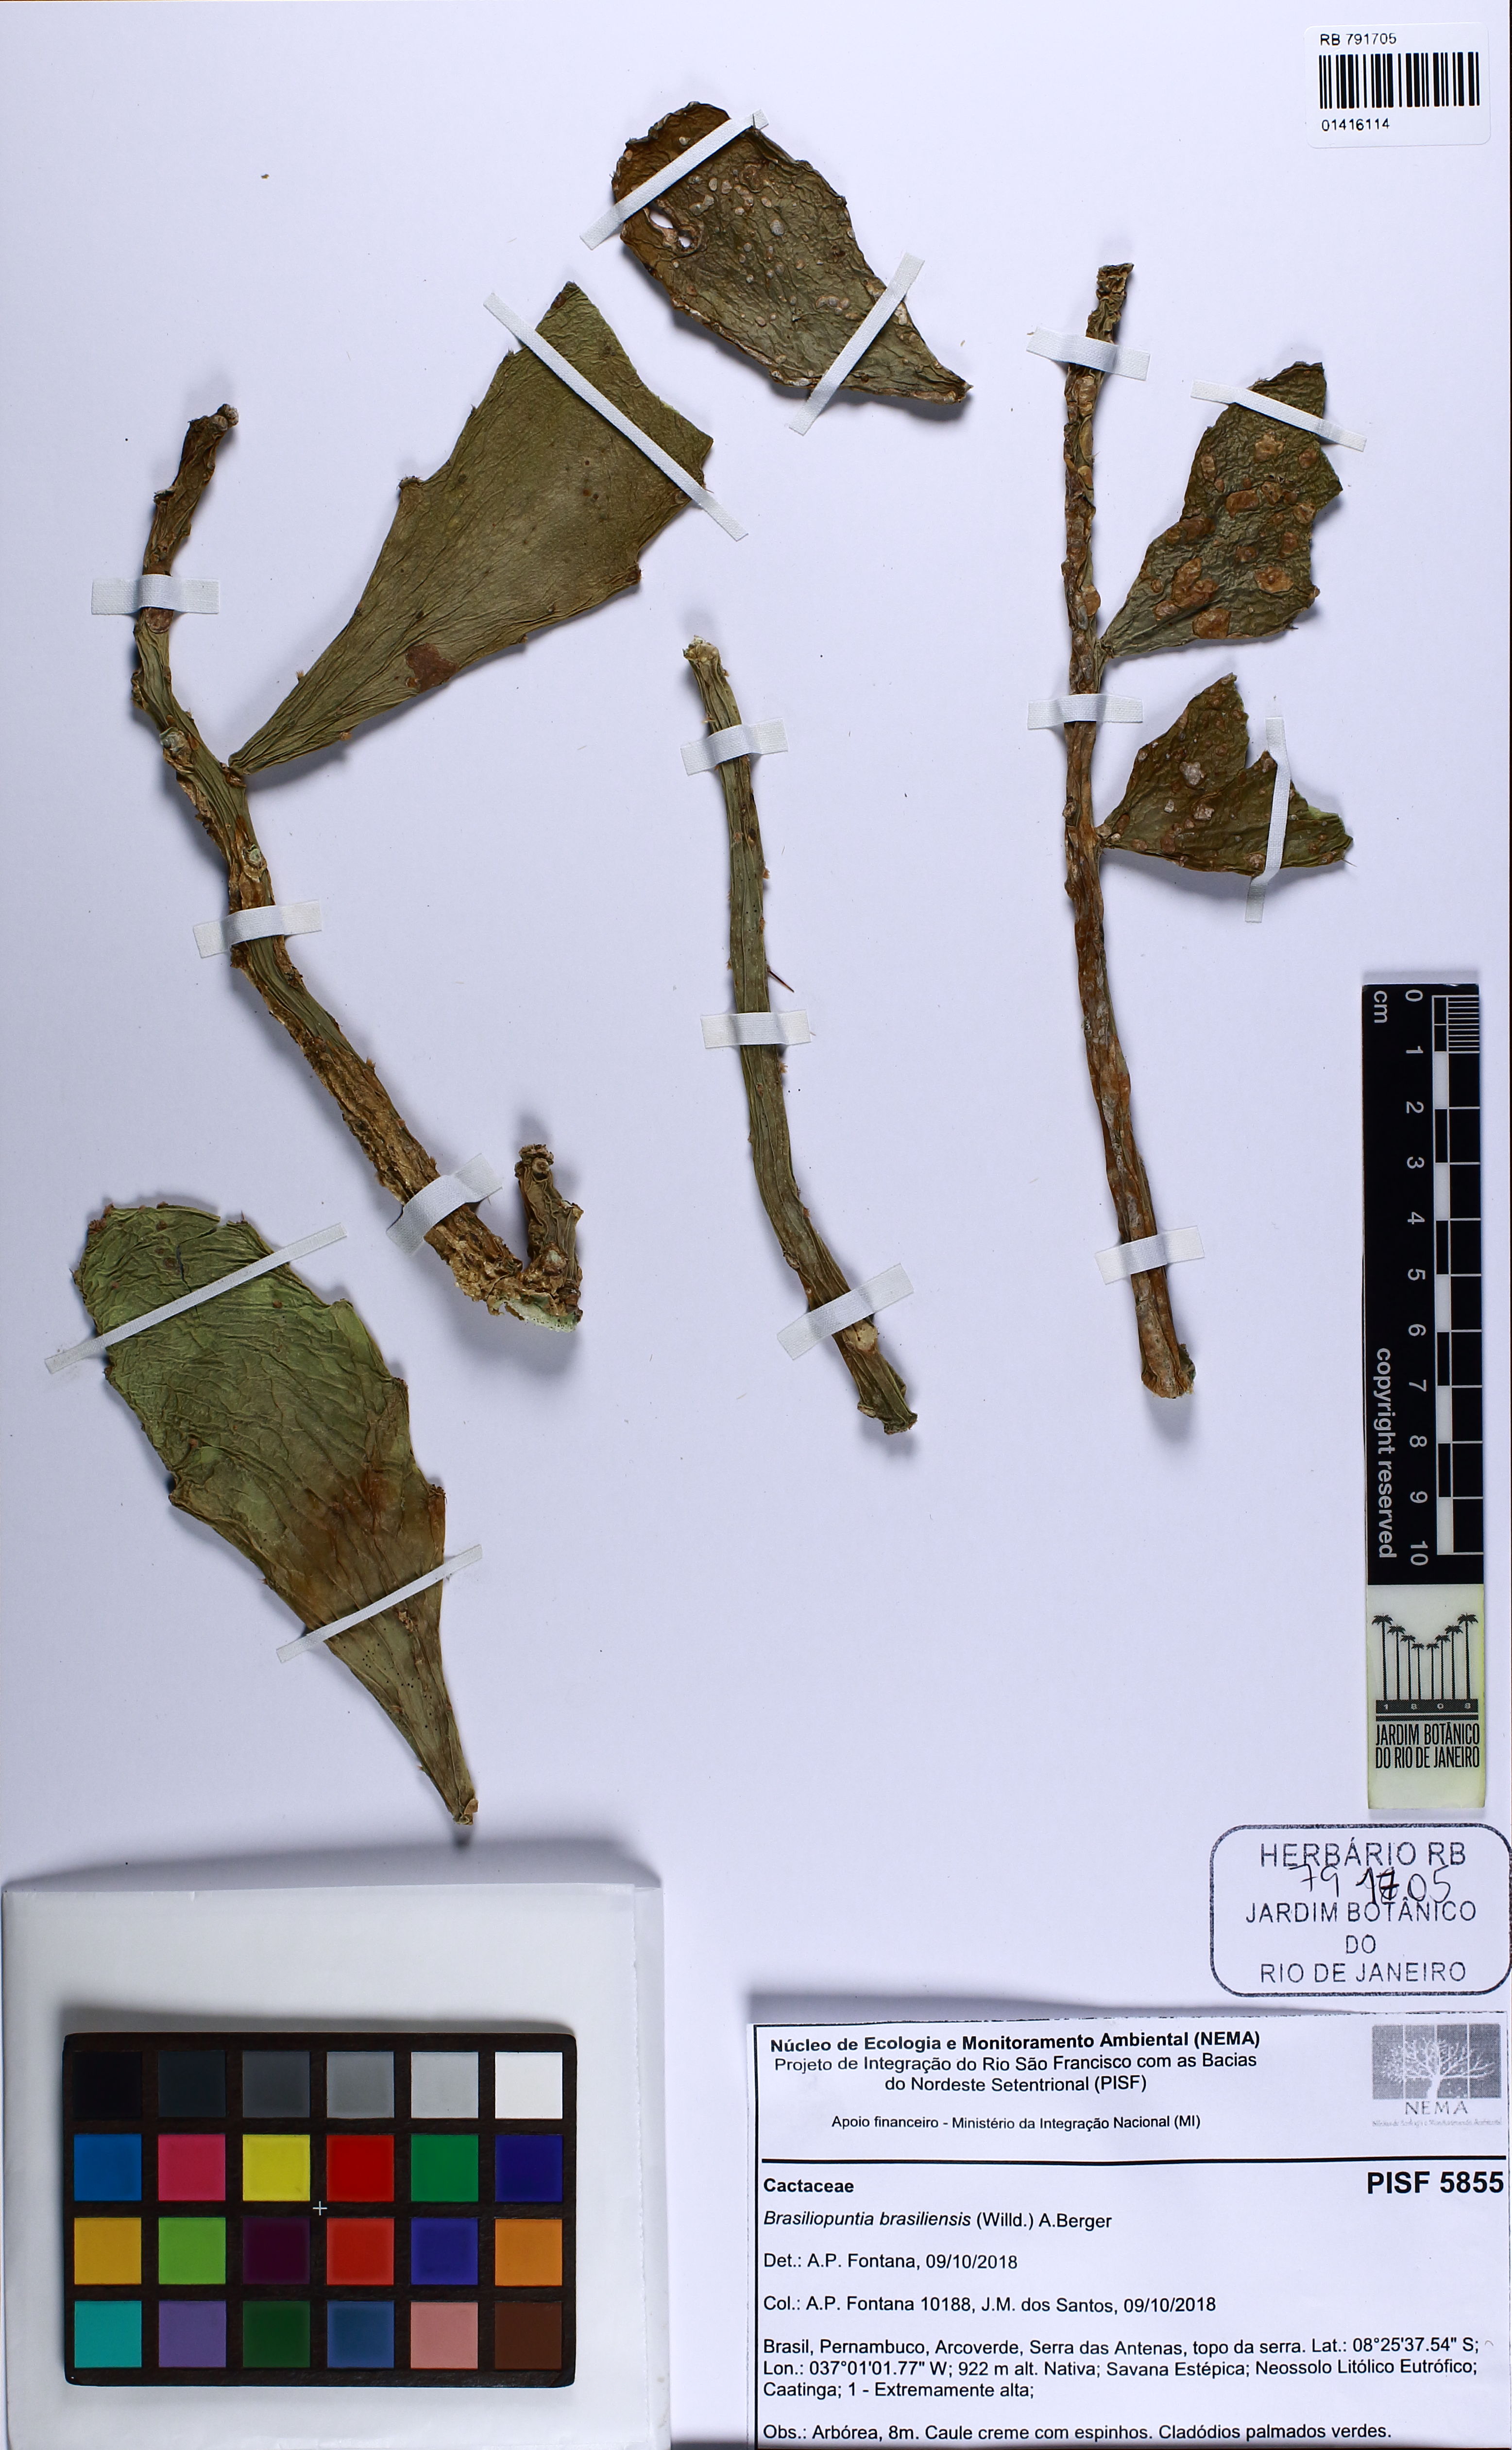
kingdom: Plantae
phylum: Tracheophyta
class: Magnoliopsida
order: Caryophyllales
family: Cactaceae
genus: Brasiliopuntia
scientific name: Brasiliopuntia brasiliensis
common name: Brazilian pricklypear
